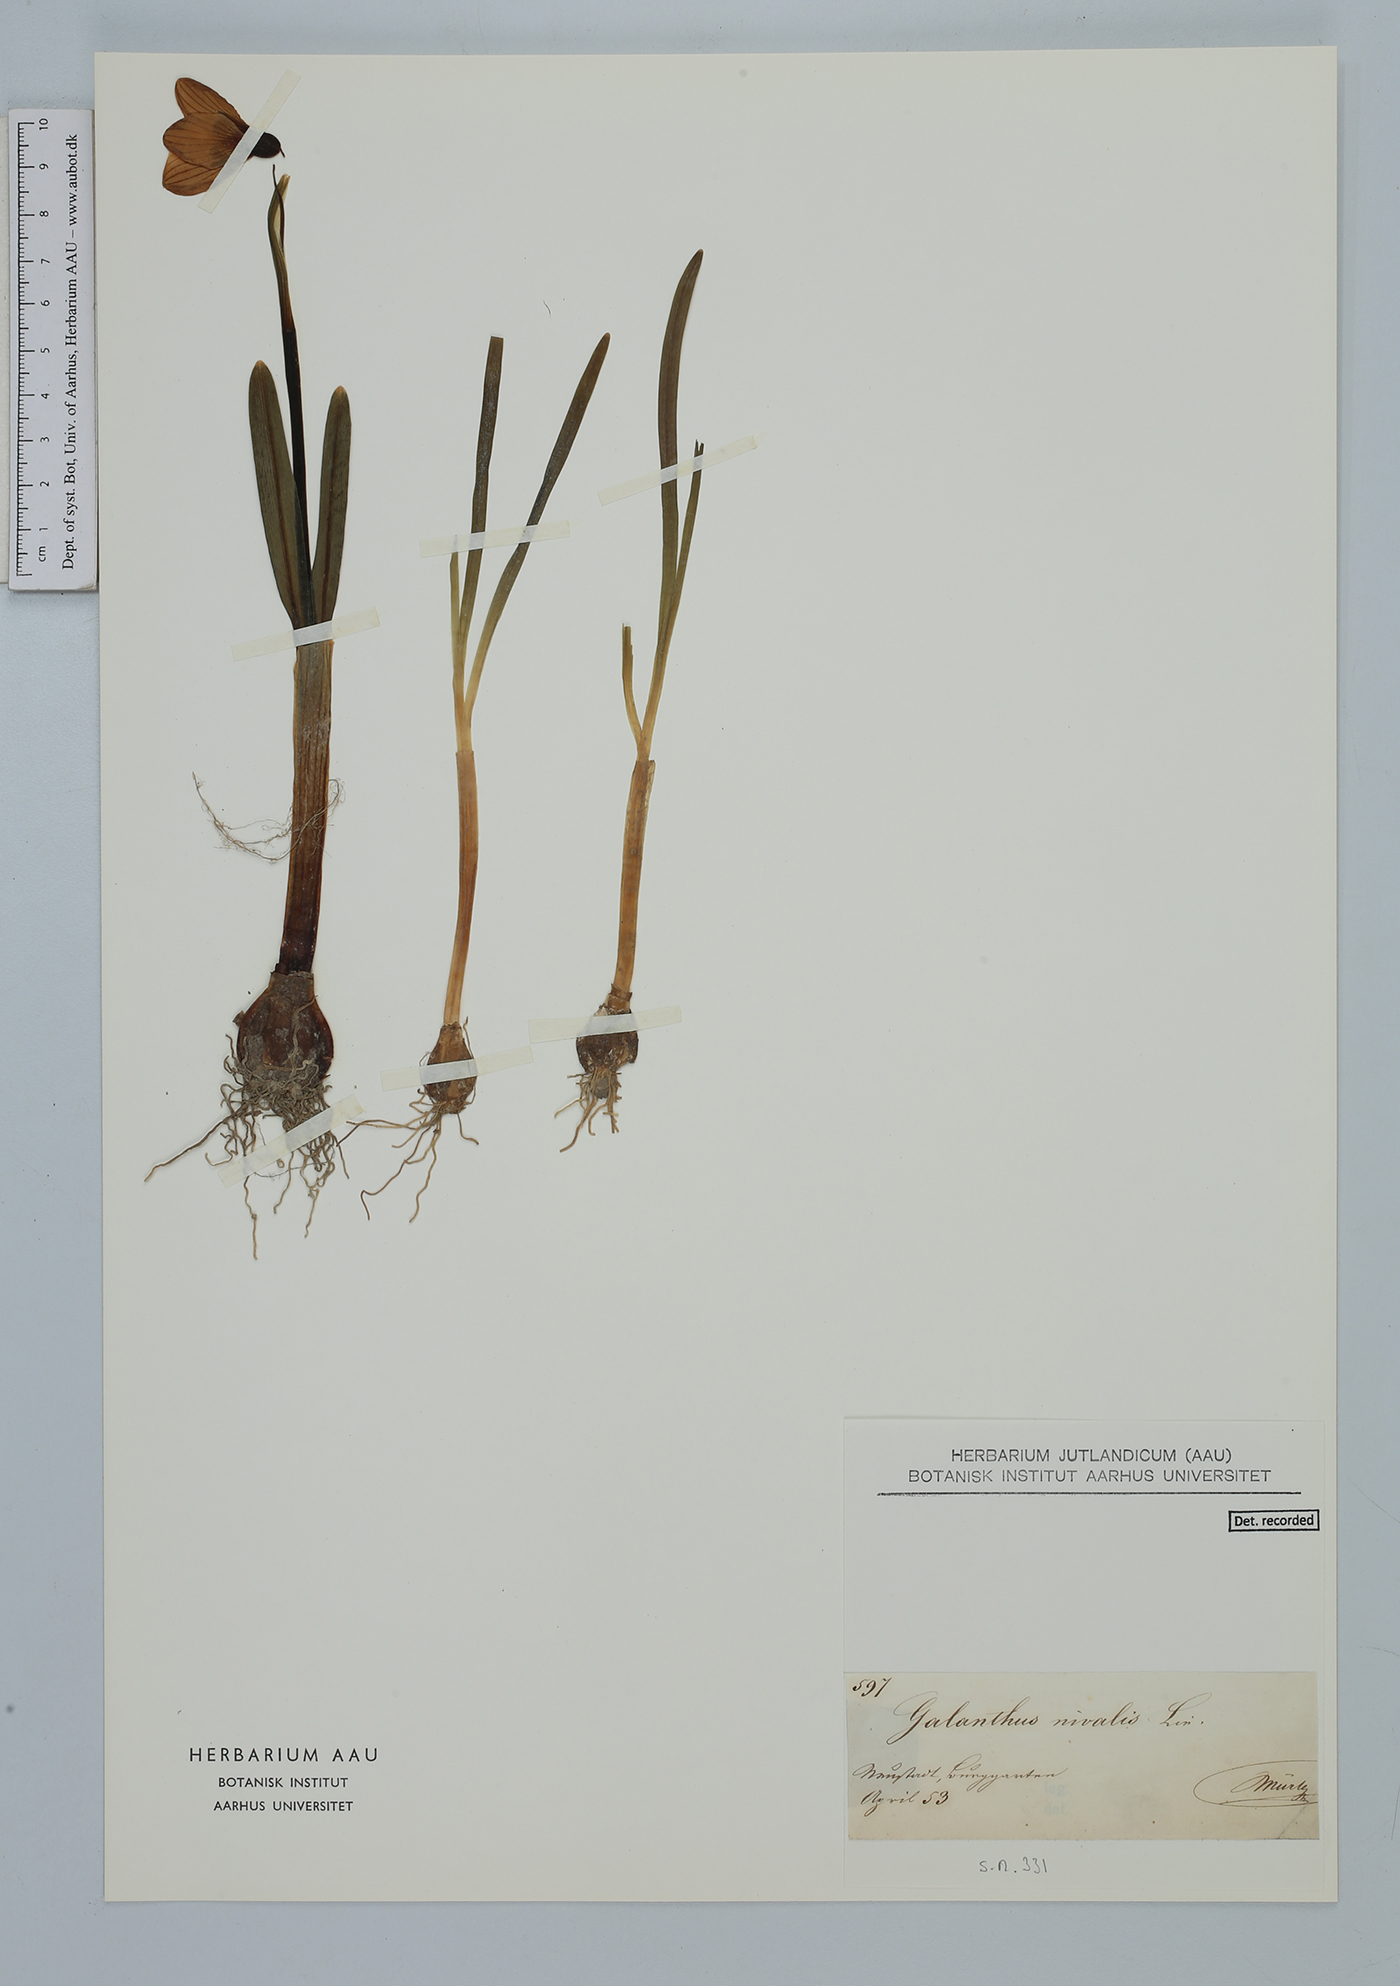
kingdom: Plantae
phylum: Tracheophyta
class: Liliopsida
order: Asparagales
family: Amaryllidaceae
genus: Galanthus
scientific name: Galanthus nivalis
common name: Snowdrop
